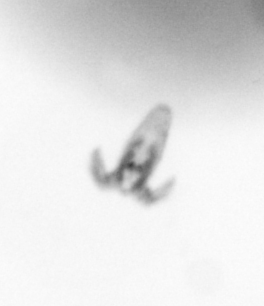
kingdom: Animalia
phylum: Arthropoda
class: Copepoda
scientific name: Copepoda
